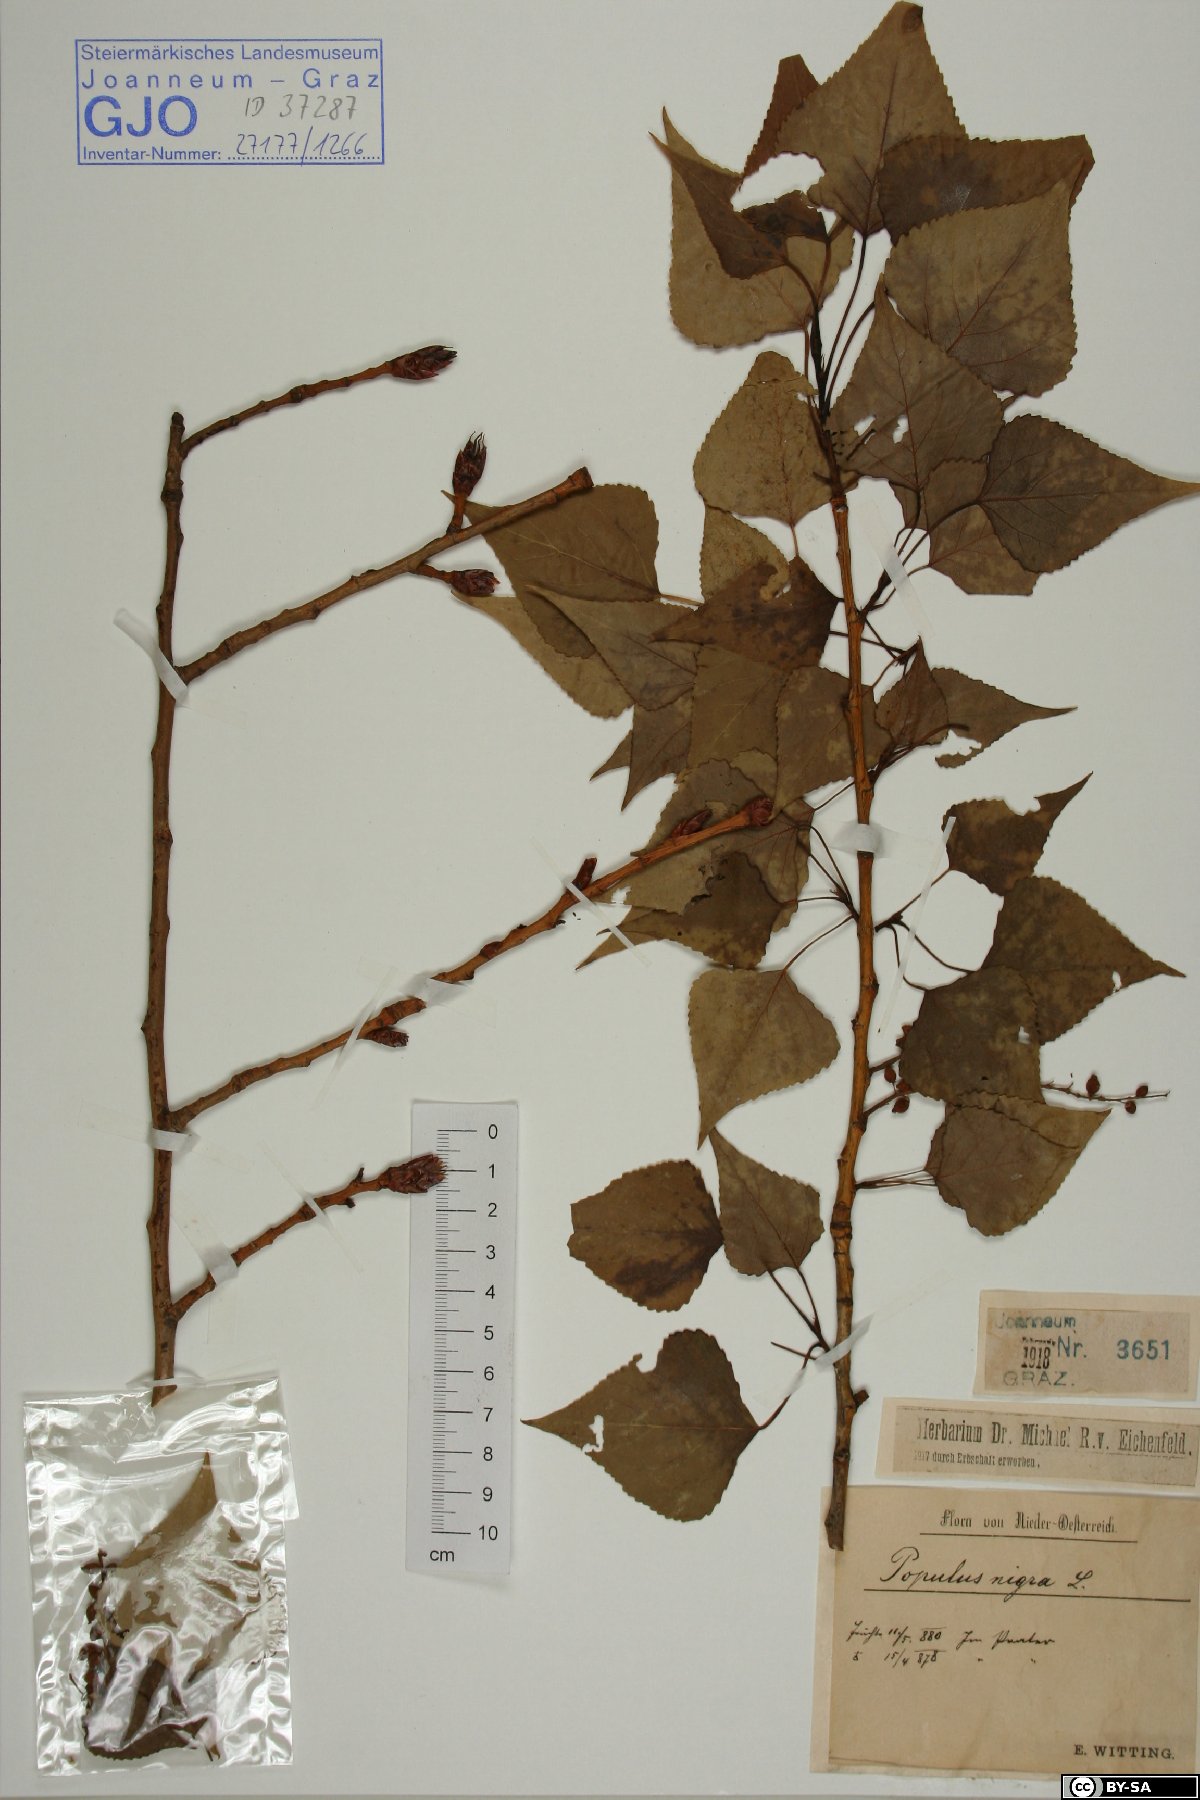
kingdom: Plantae
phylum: Tracheophyta
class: Magnoliopsida
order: Malpighiales
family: Salicaceae
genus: Populus
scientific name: Populus nigra
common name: Black poplar
